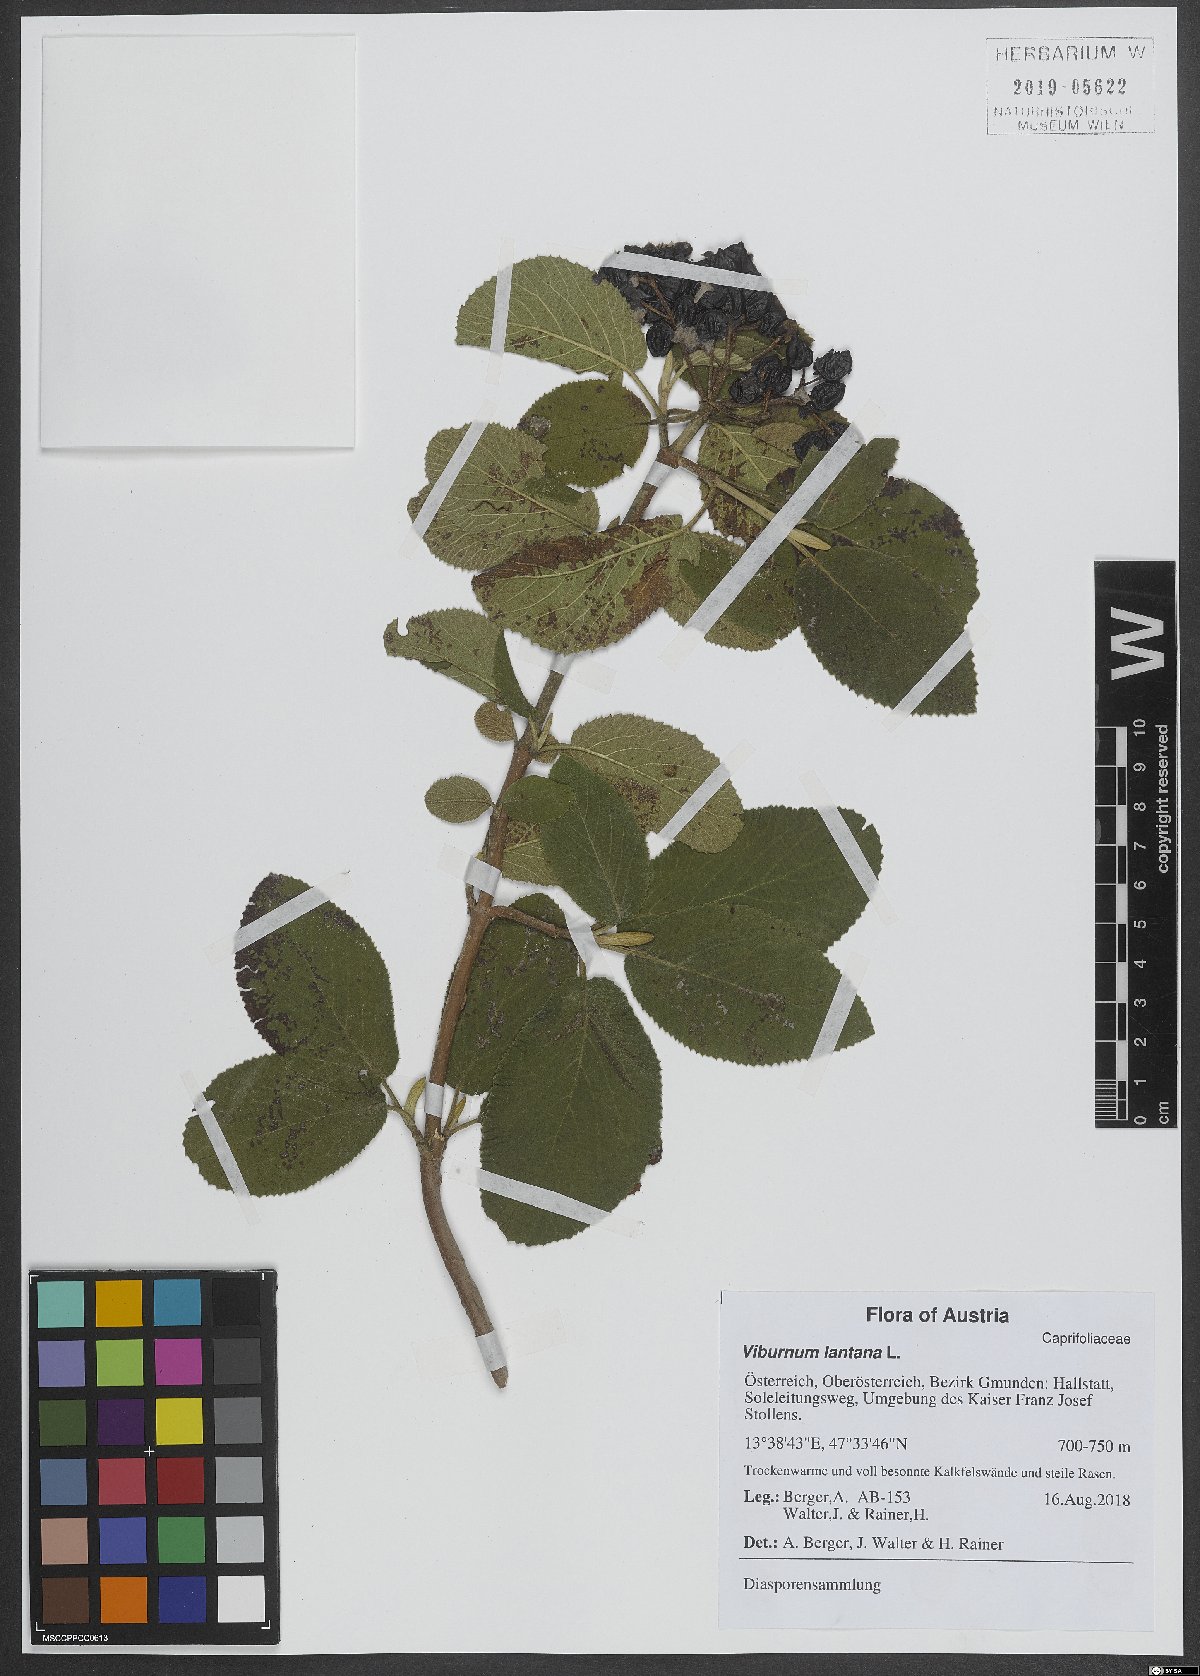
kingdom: Plantae
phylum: Tracheophyta
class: Magnoliopsida
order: Dipsacales
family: Viburnaceae
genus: Viburnum
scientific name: Viburnum lantana
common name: Wayfaring tree
